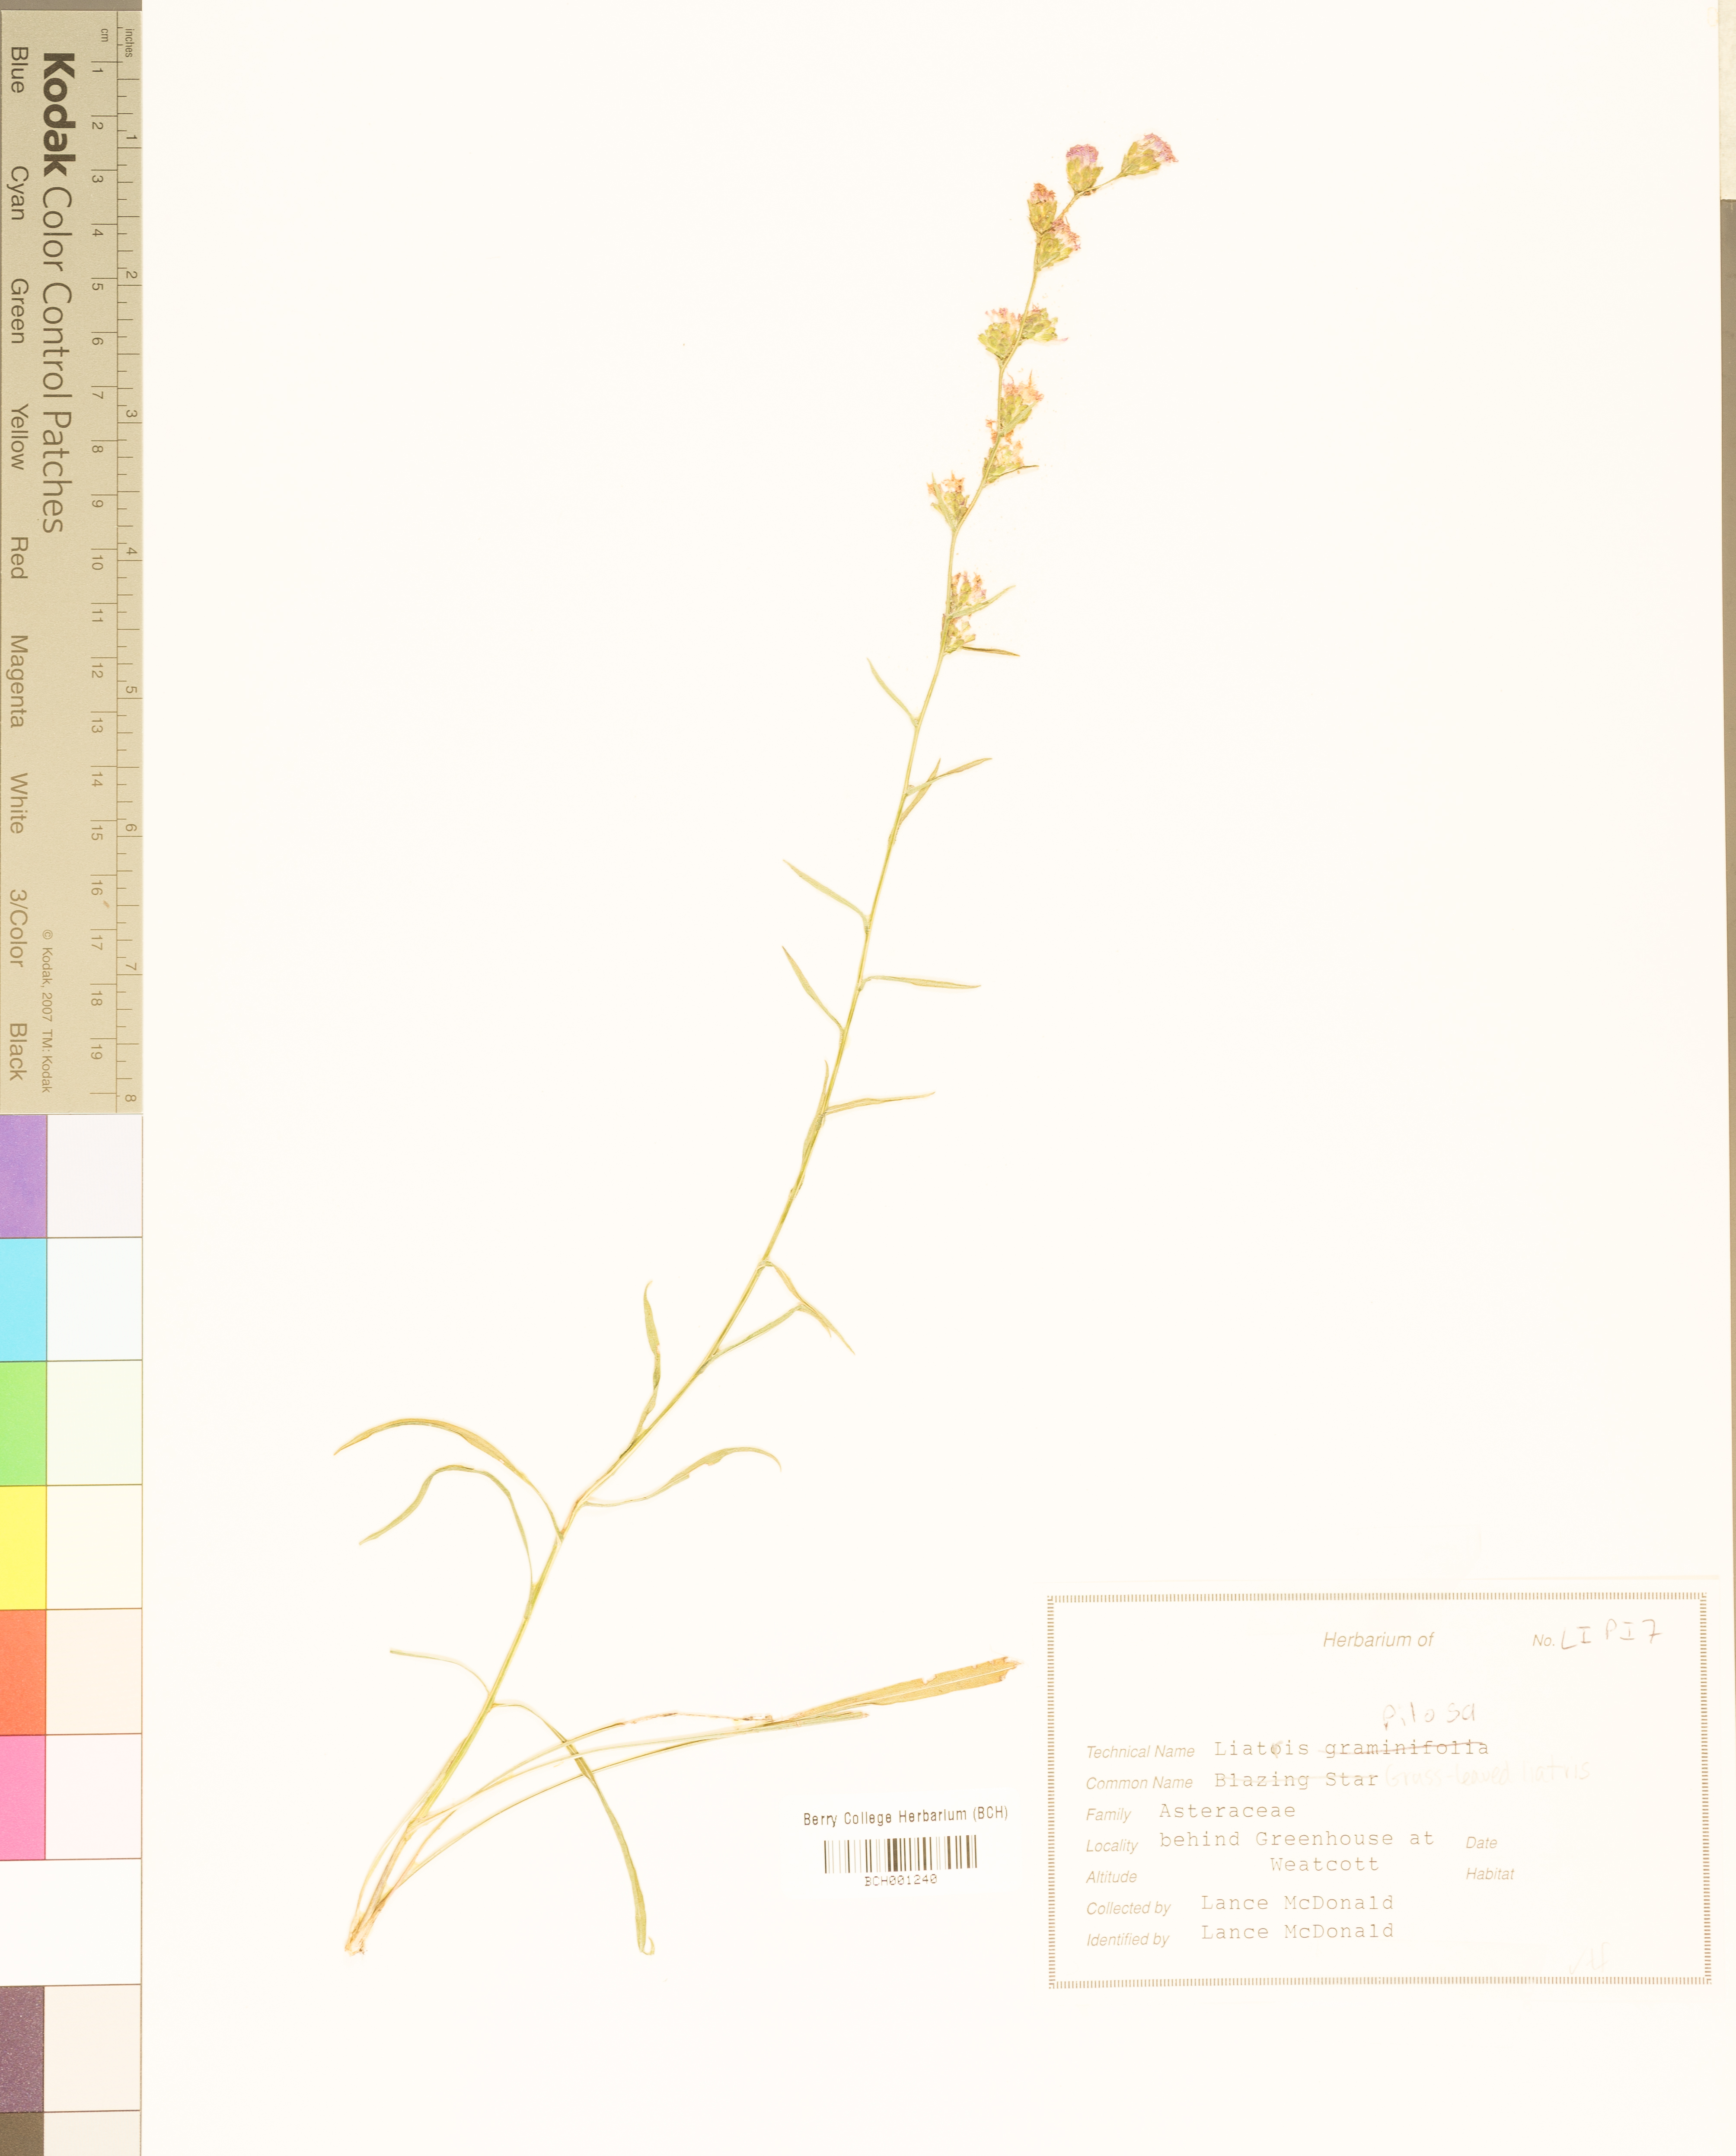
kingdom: Plantae
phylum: Tracheophyta
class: Magnoliopsida
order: Asterales
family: Asteraceae
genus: Liatris
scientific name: Liatris pilosa
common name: Grass-leaf gayfeather
